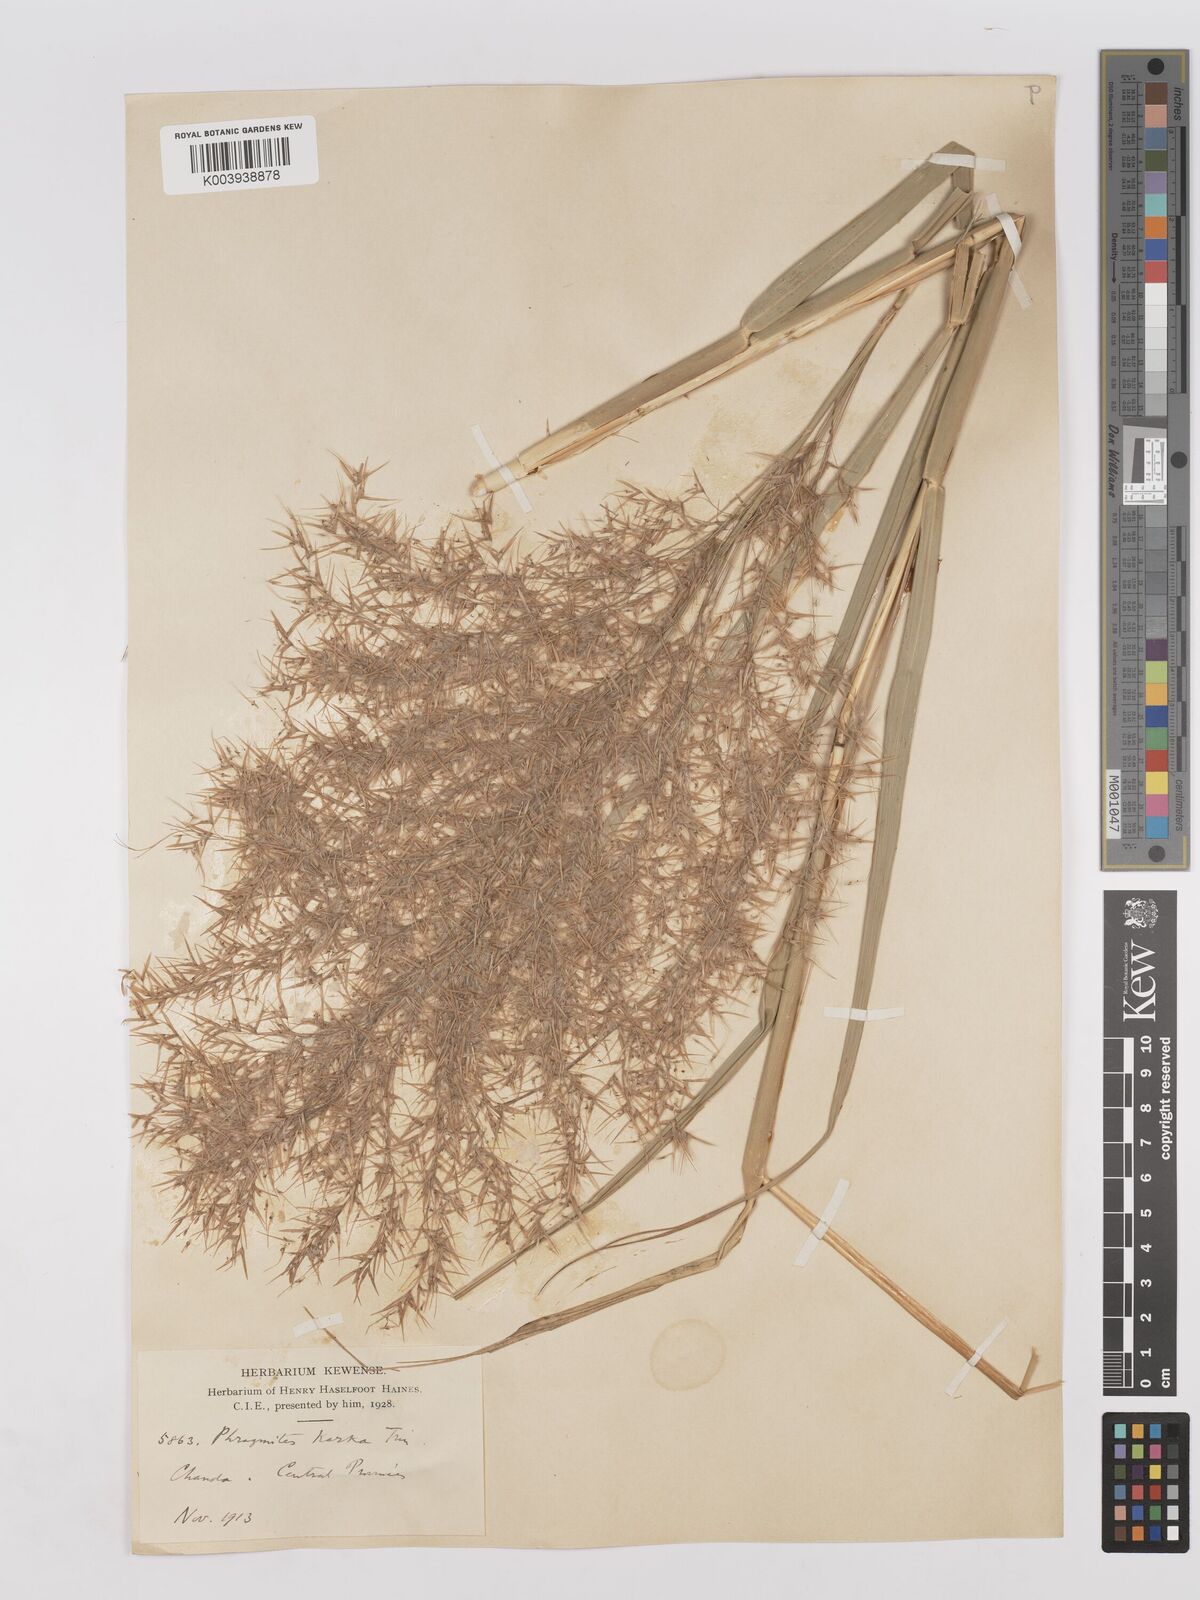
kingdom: Plantae
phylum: Tracheophyta
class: Liliopsida
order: Poales
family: Poaceae
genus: Phragmites
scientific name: Phragmites karka
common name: Tropical reed
